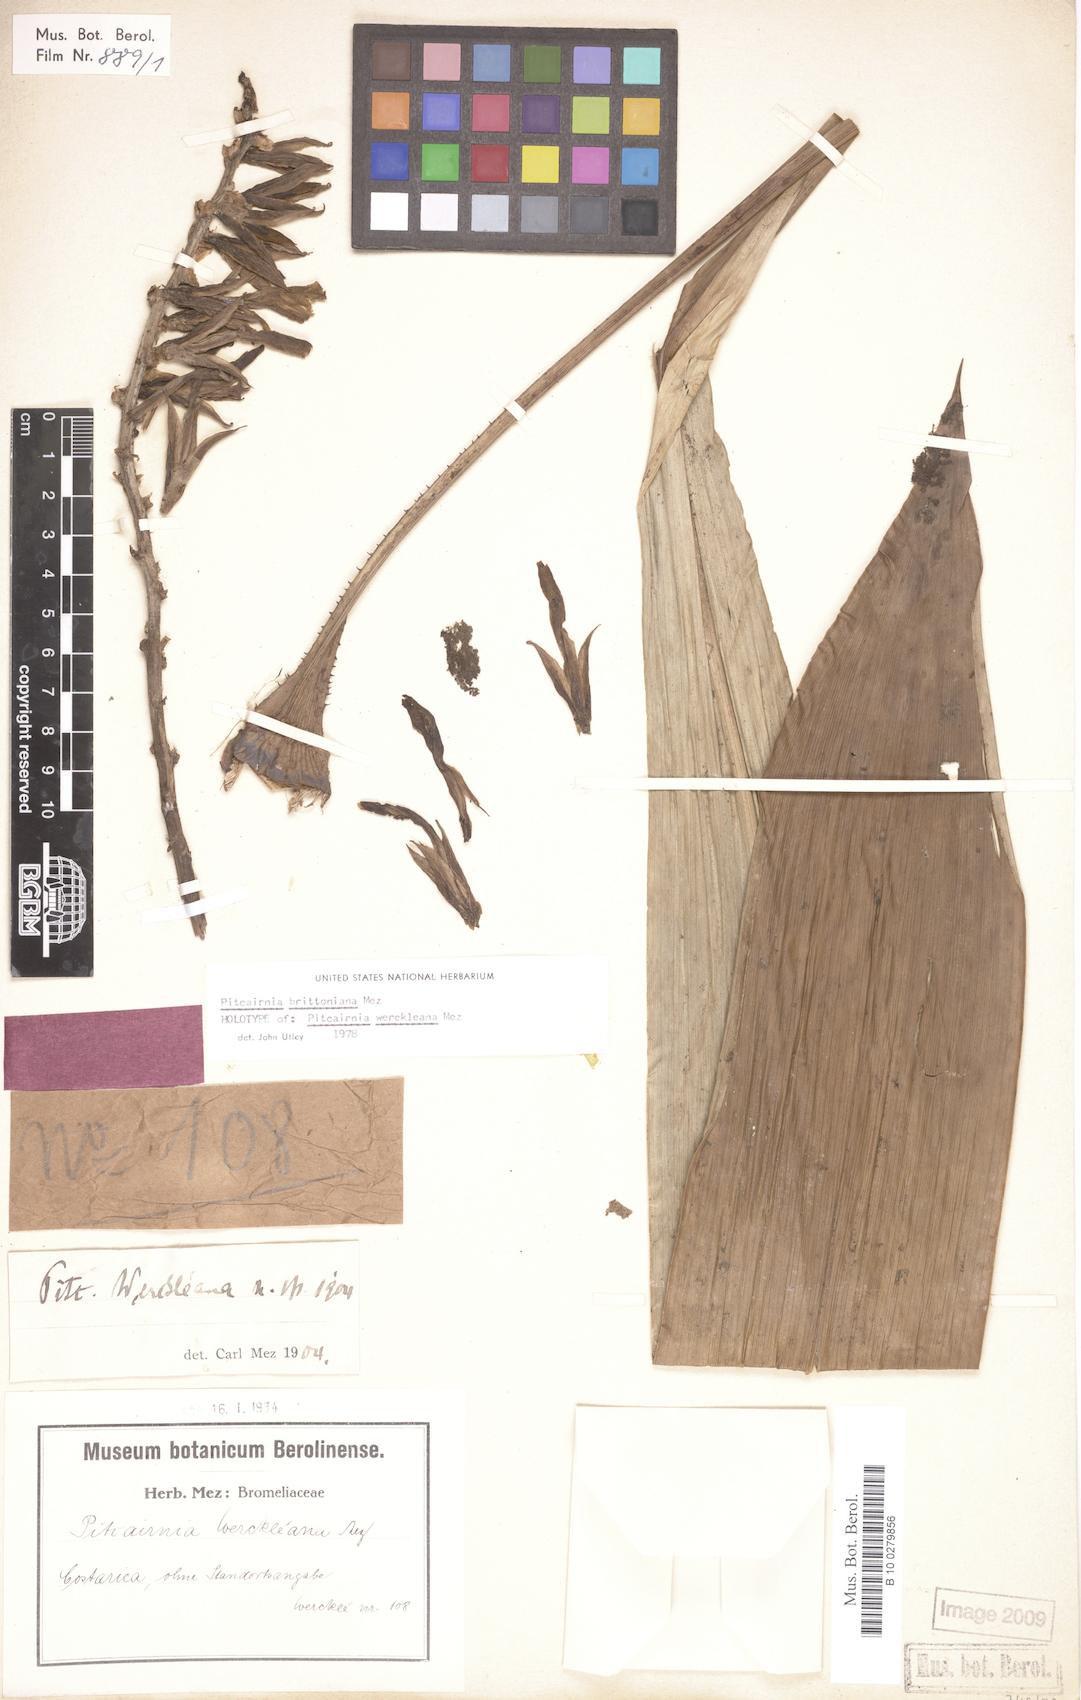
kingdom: Plantae
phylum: Tracheophyta
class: Liliopsida
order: Poales
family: Bromeliaceae
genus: Pitcairnia
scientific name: Pitcairnia brittoniana
